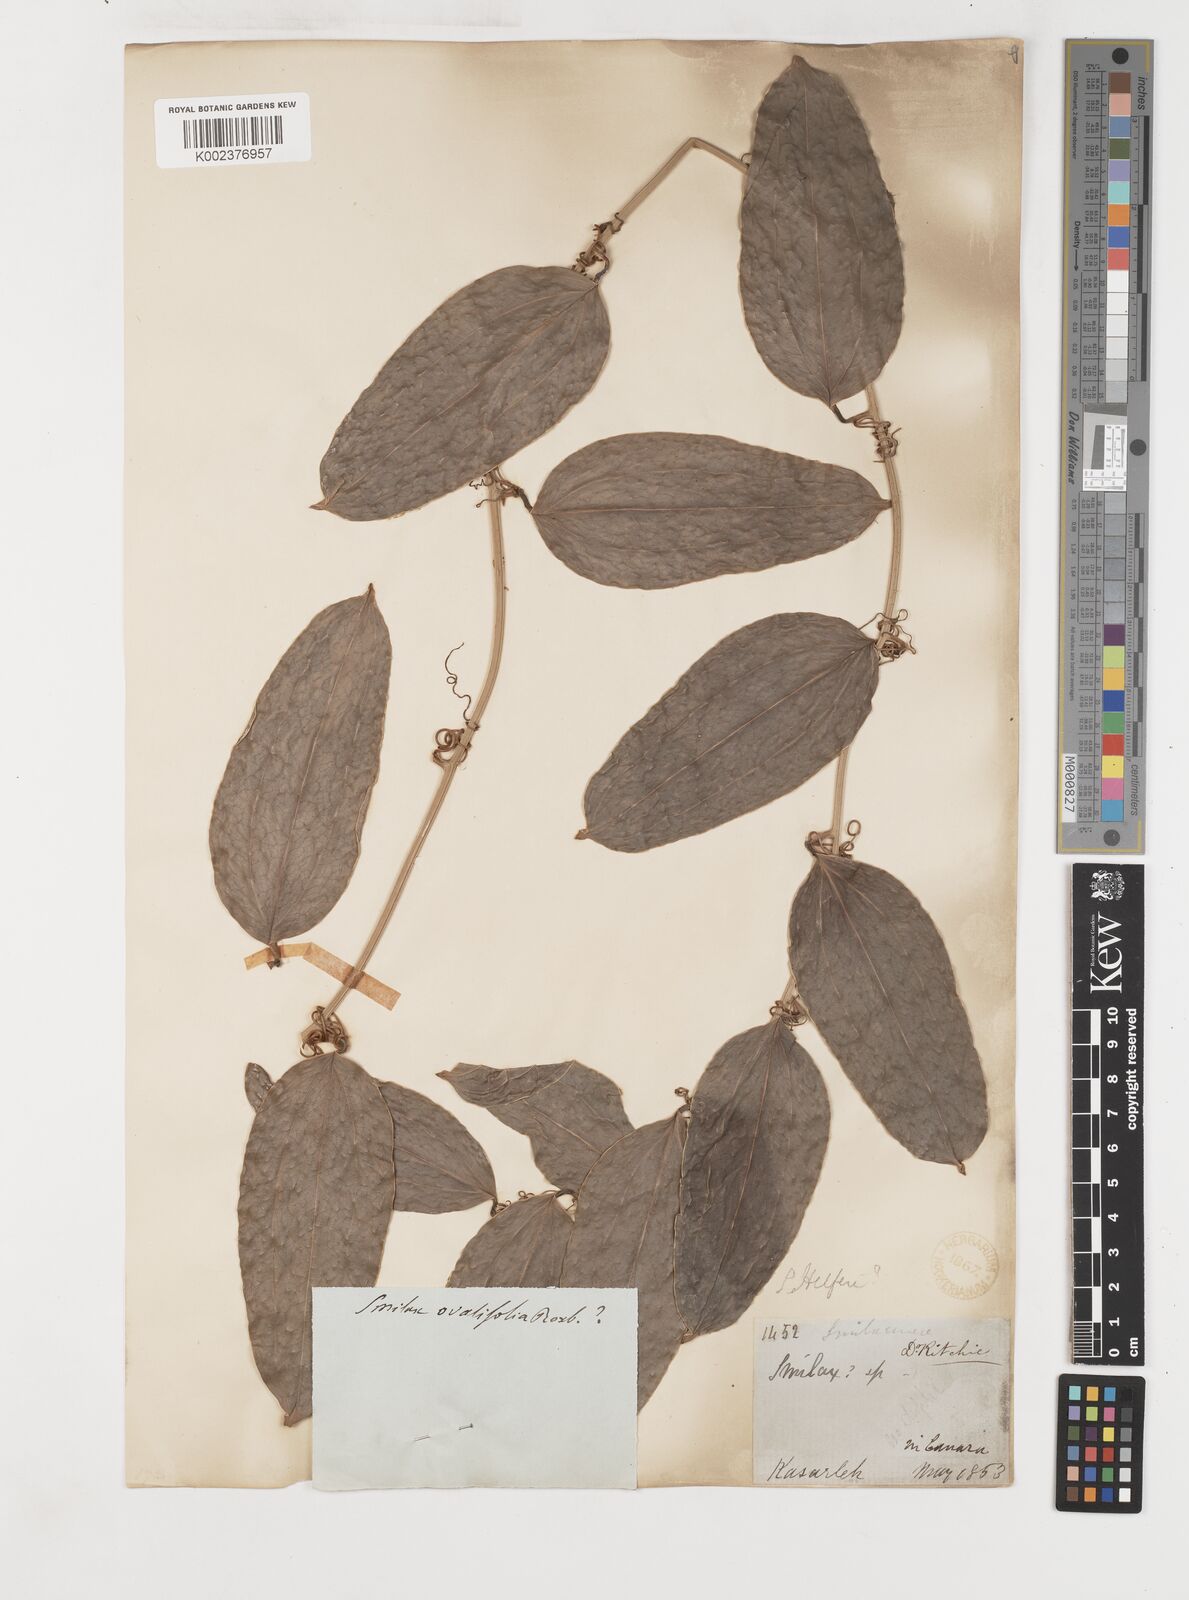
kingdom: Plantae
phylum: Tracheophyta
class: Liliopsida
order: Liliales
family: Smilacaceae
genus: Smilax
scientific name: Smilax
